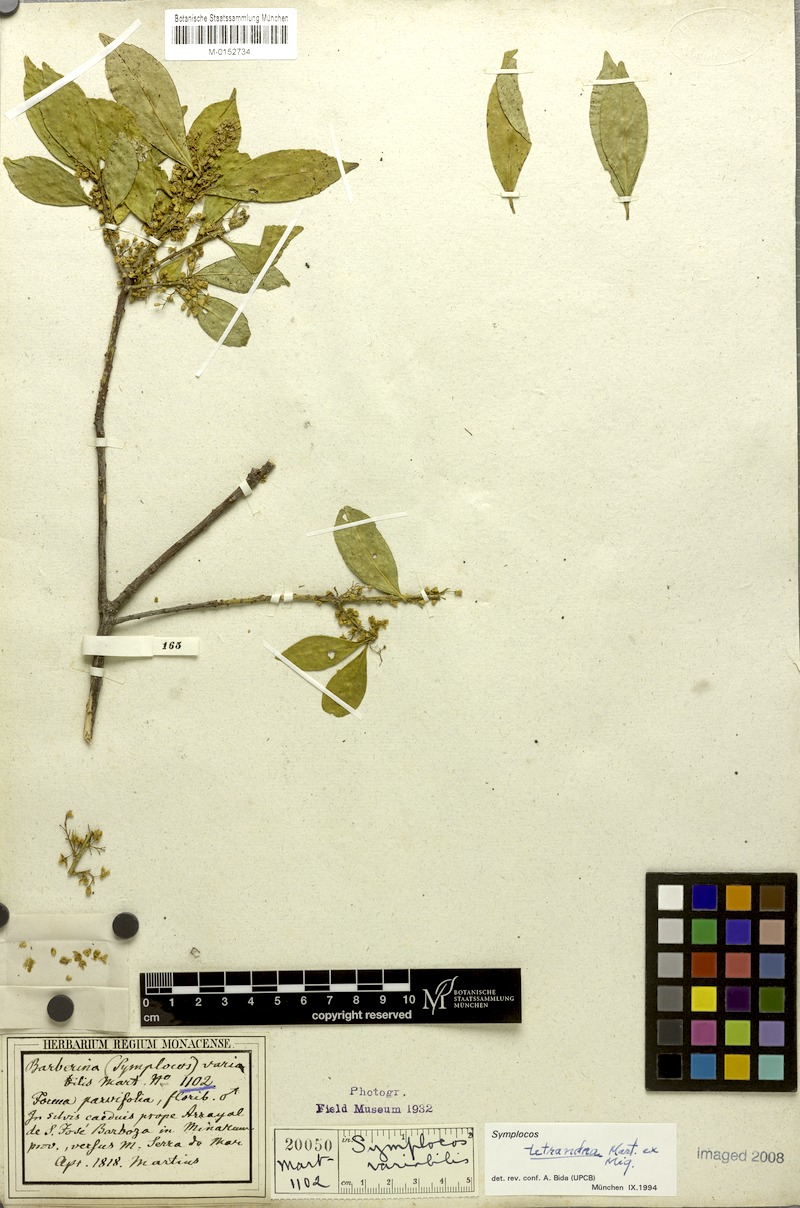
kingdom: Plantae
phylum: Tracheophyta
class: Magnoliopsida
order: Ericales
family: Symplocaceae
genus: Symplocos
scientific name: Symplocos tetrandra
